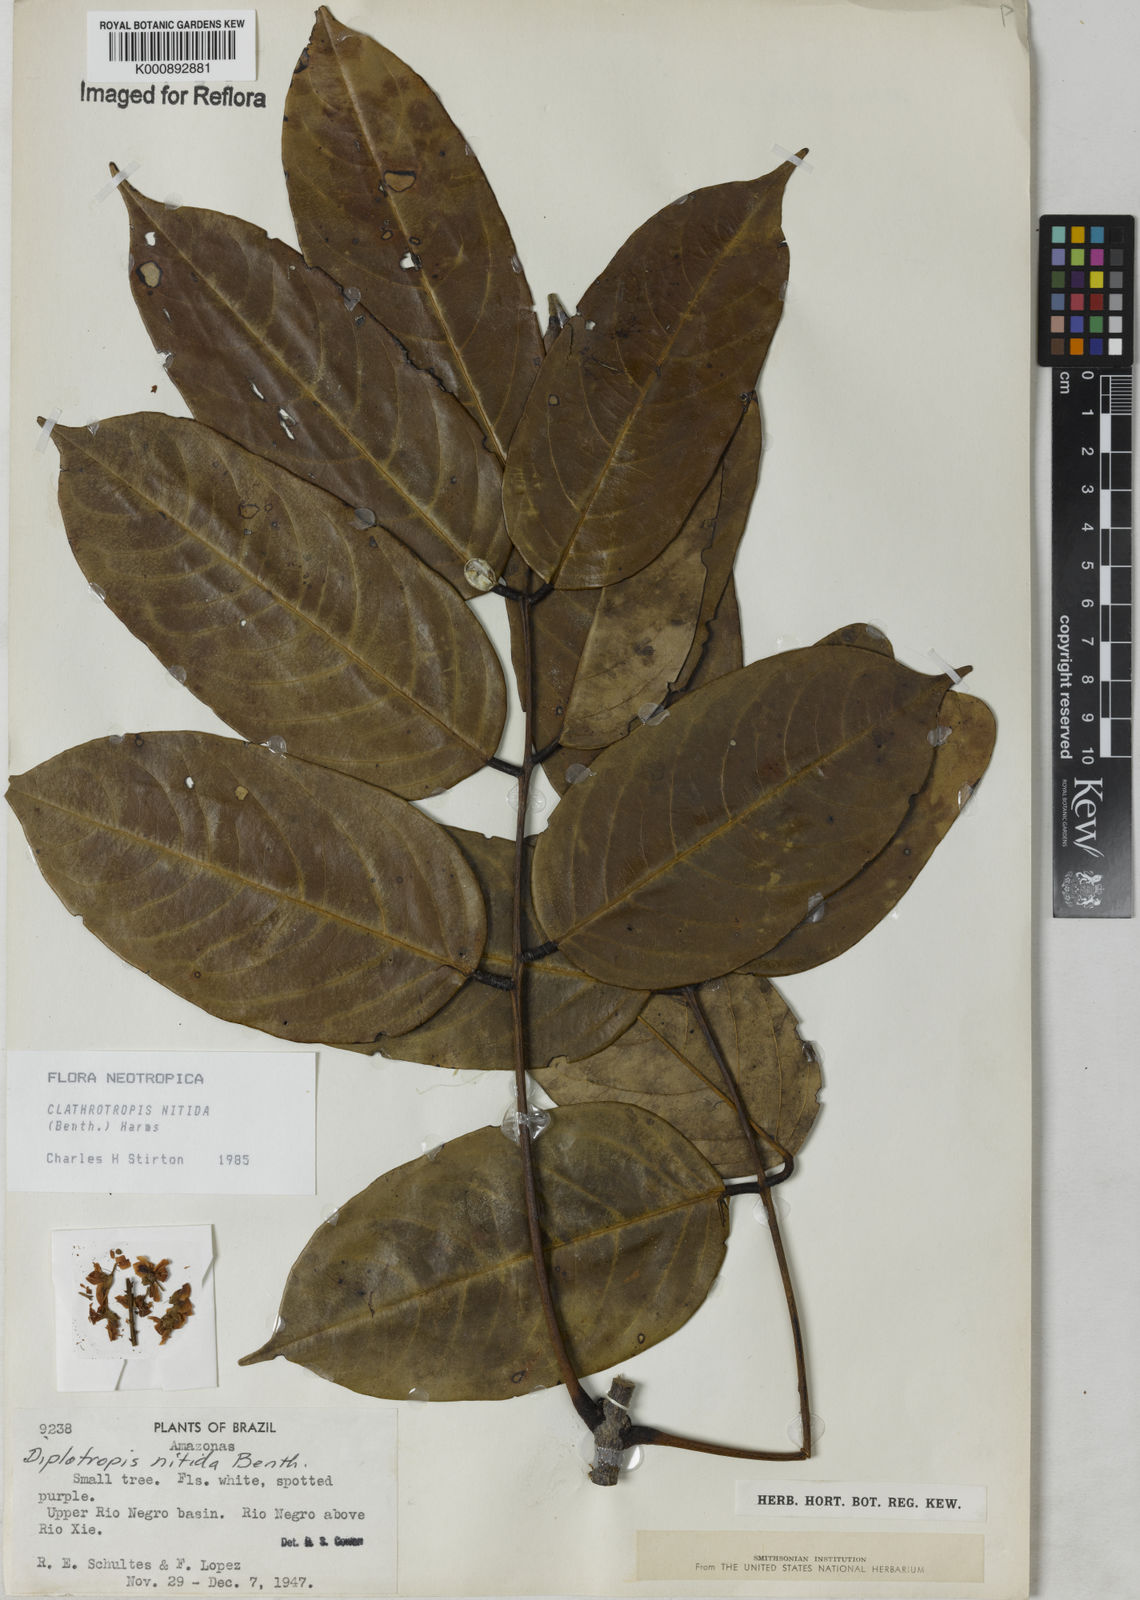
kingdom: Plantae
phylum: Tracheophyta
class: Magnoliopsida
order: Fabales
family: Fabaceae
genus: Clathrotropis
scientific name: Clathrotropis nitida
